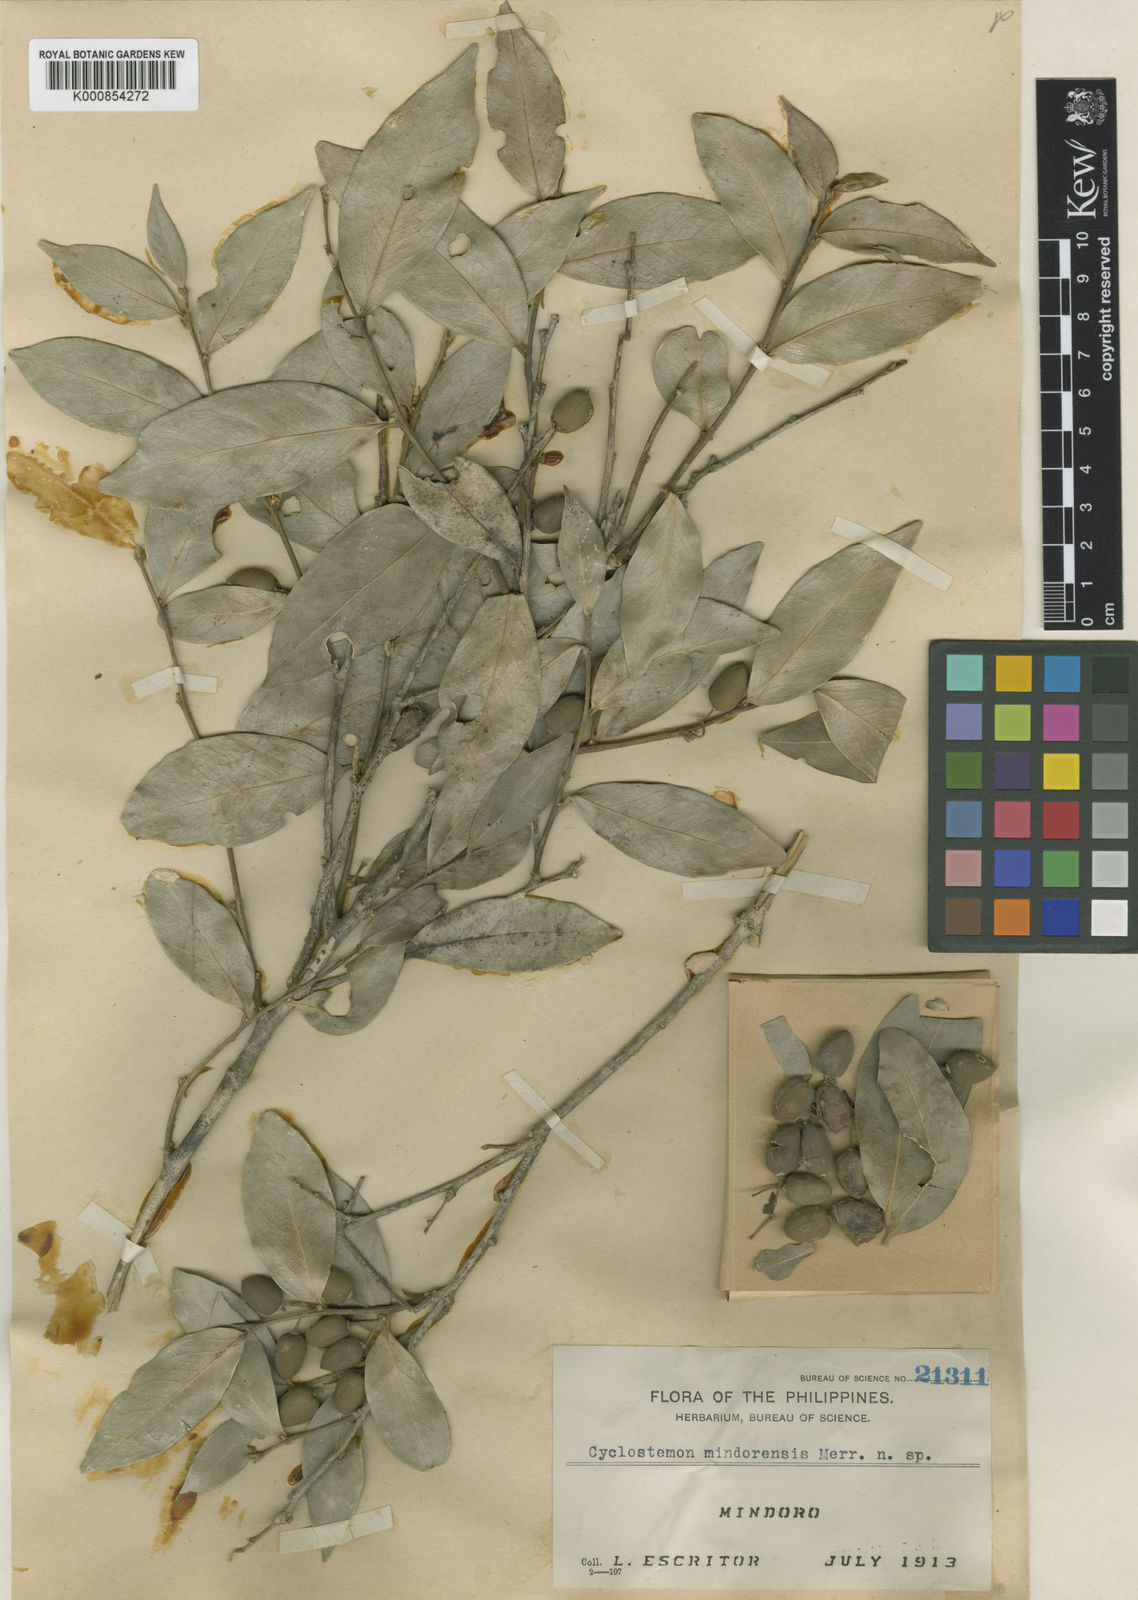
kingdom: Plantae
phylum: Tracheophyta
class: Magnoliopsida
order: Malpighiales
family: Putranjivaceae
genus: Drypetes
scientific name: Drypetes littoralis
